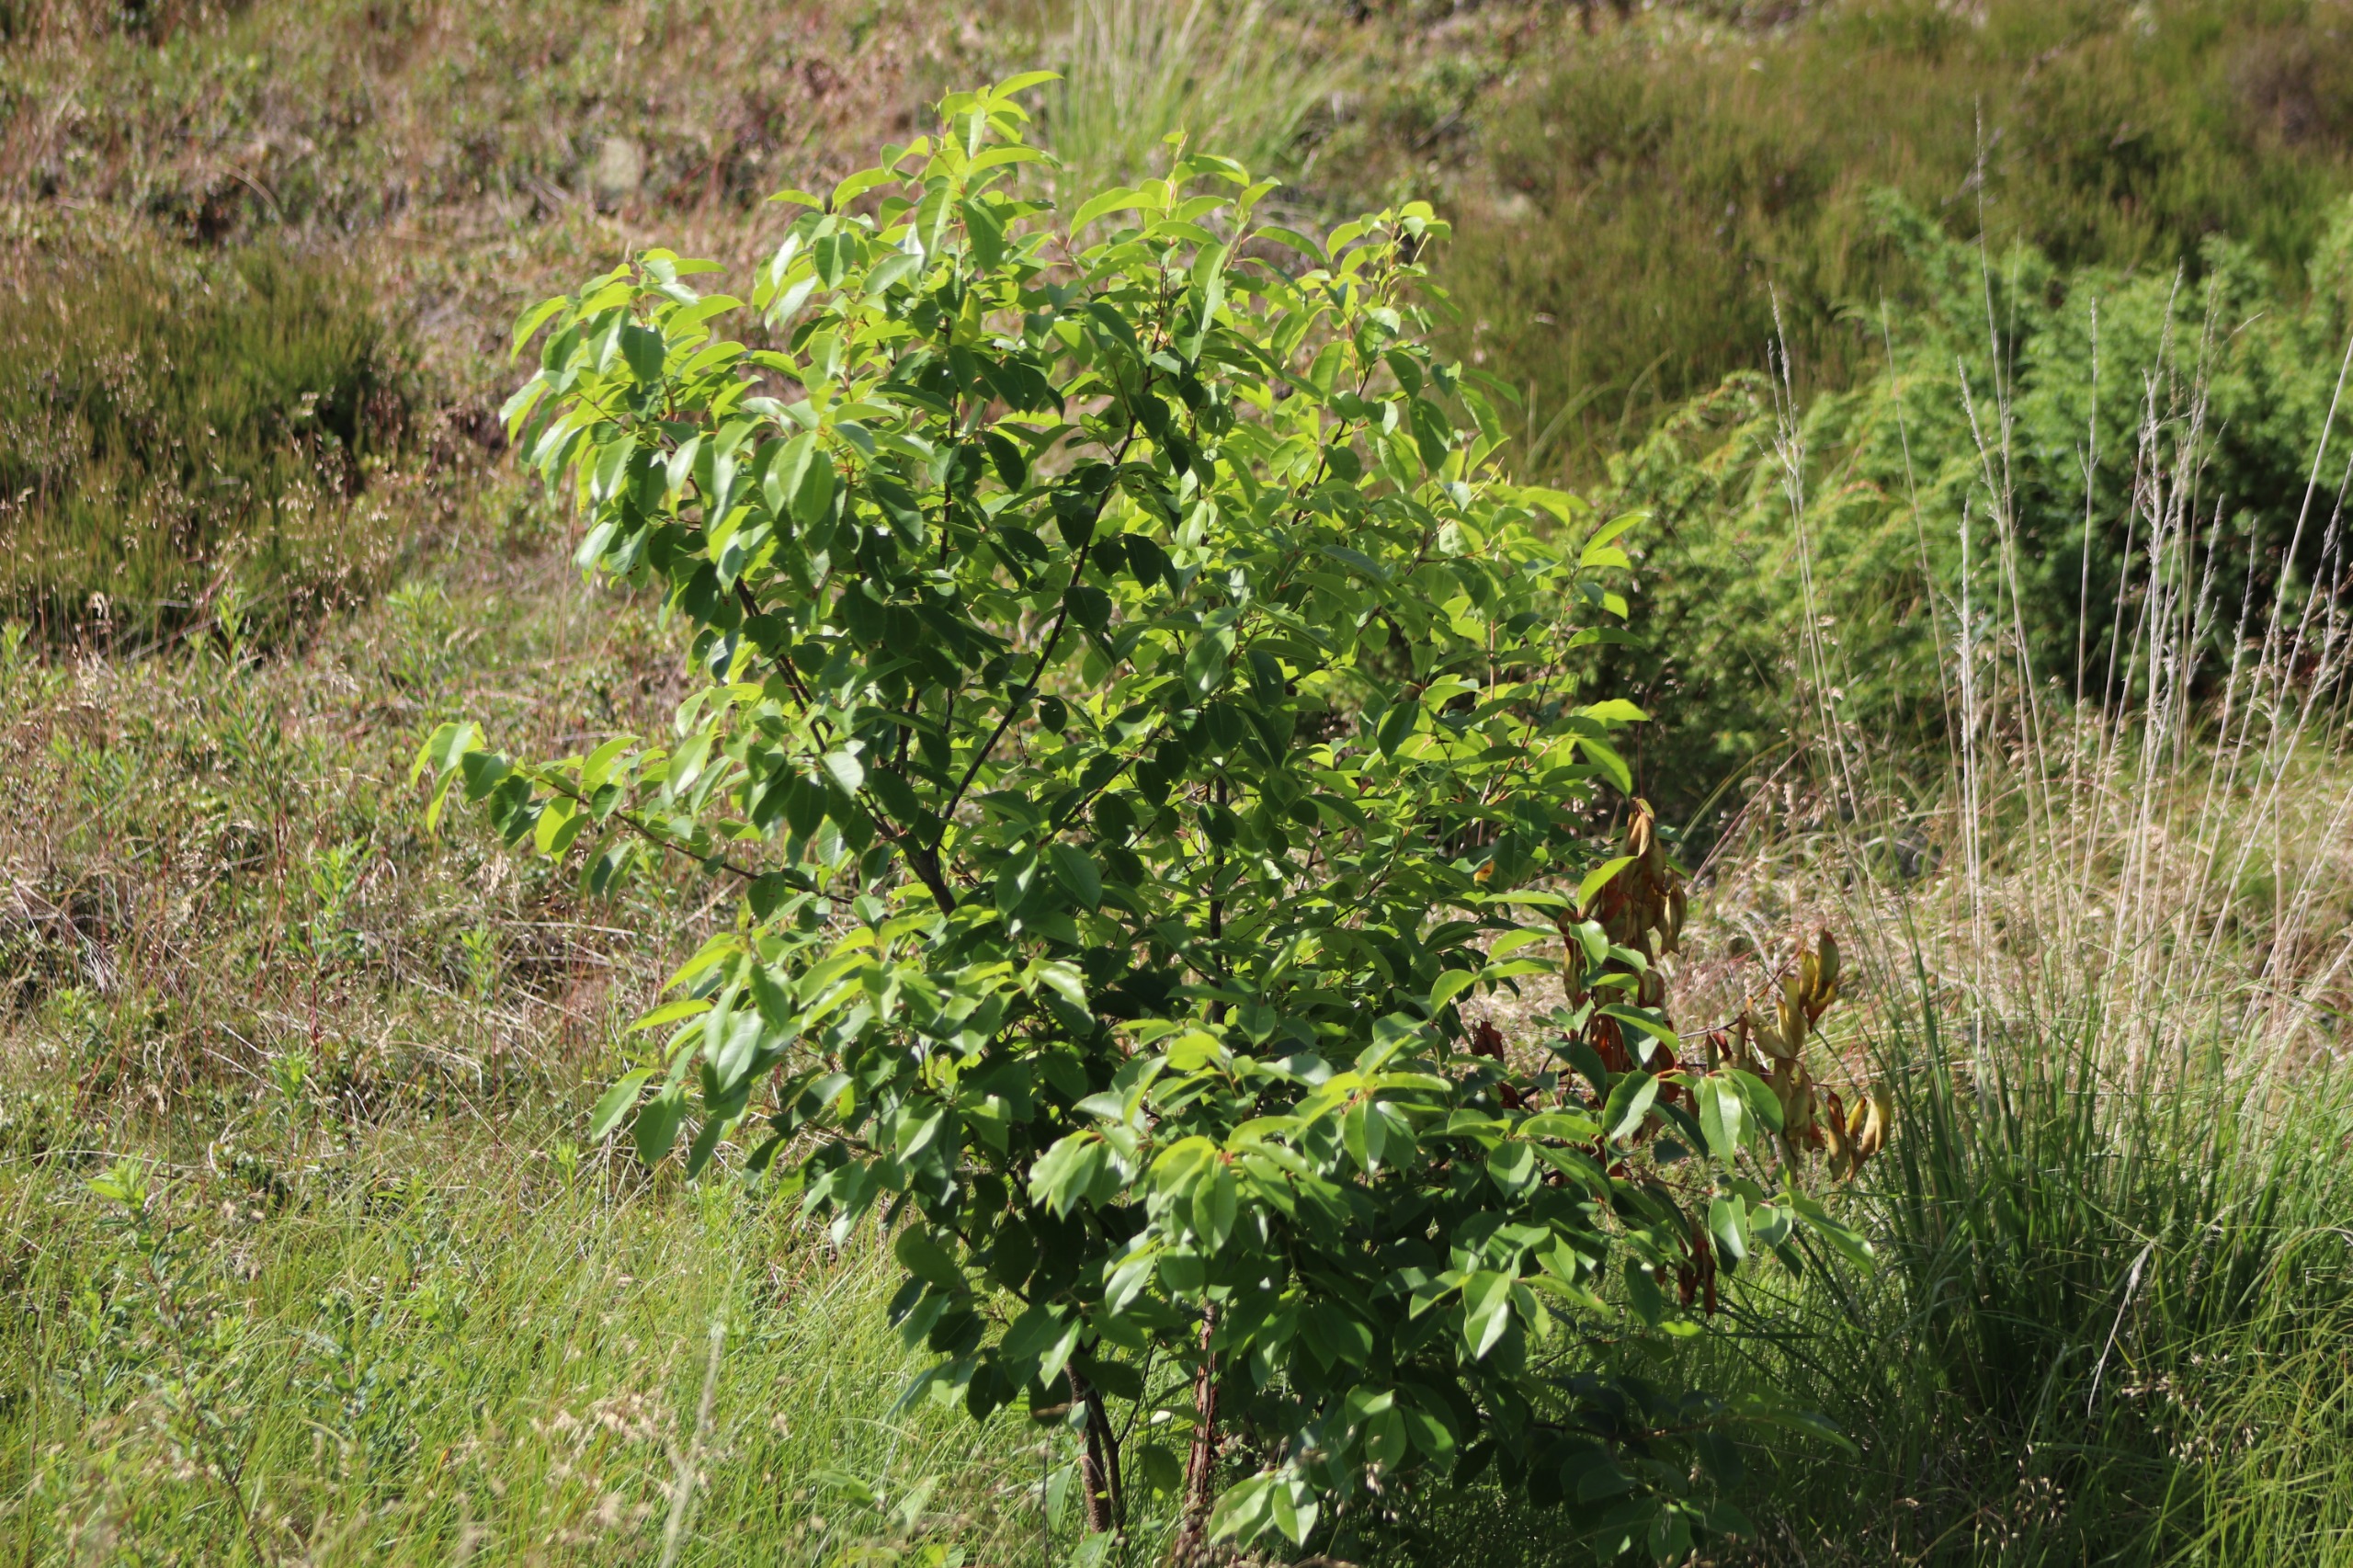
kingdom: Plantae
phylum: Tracheophyta
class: Magnoliopsida
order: Rosales
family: Rosaceae
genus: Prunus
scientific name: Prunus serotina
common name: Glansbladet hæg
